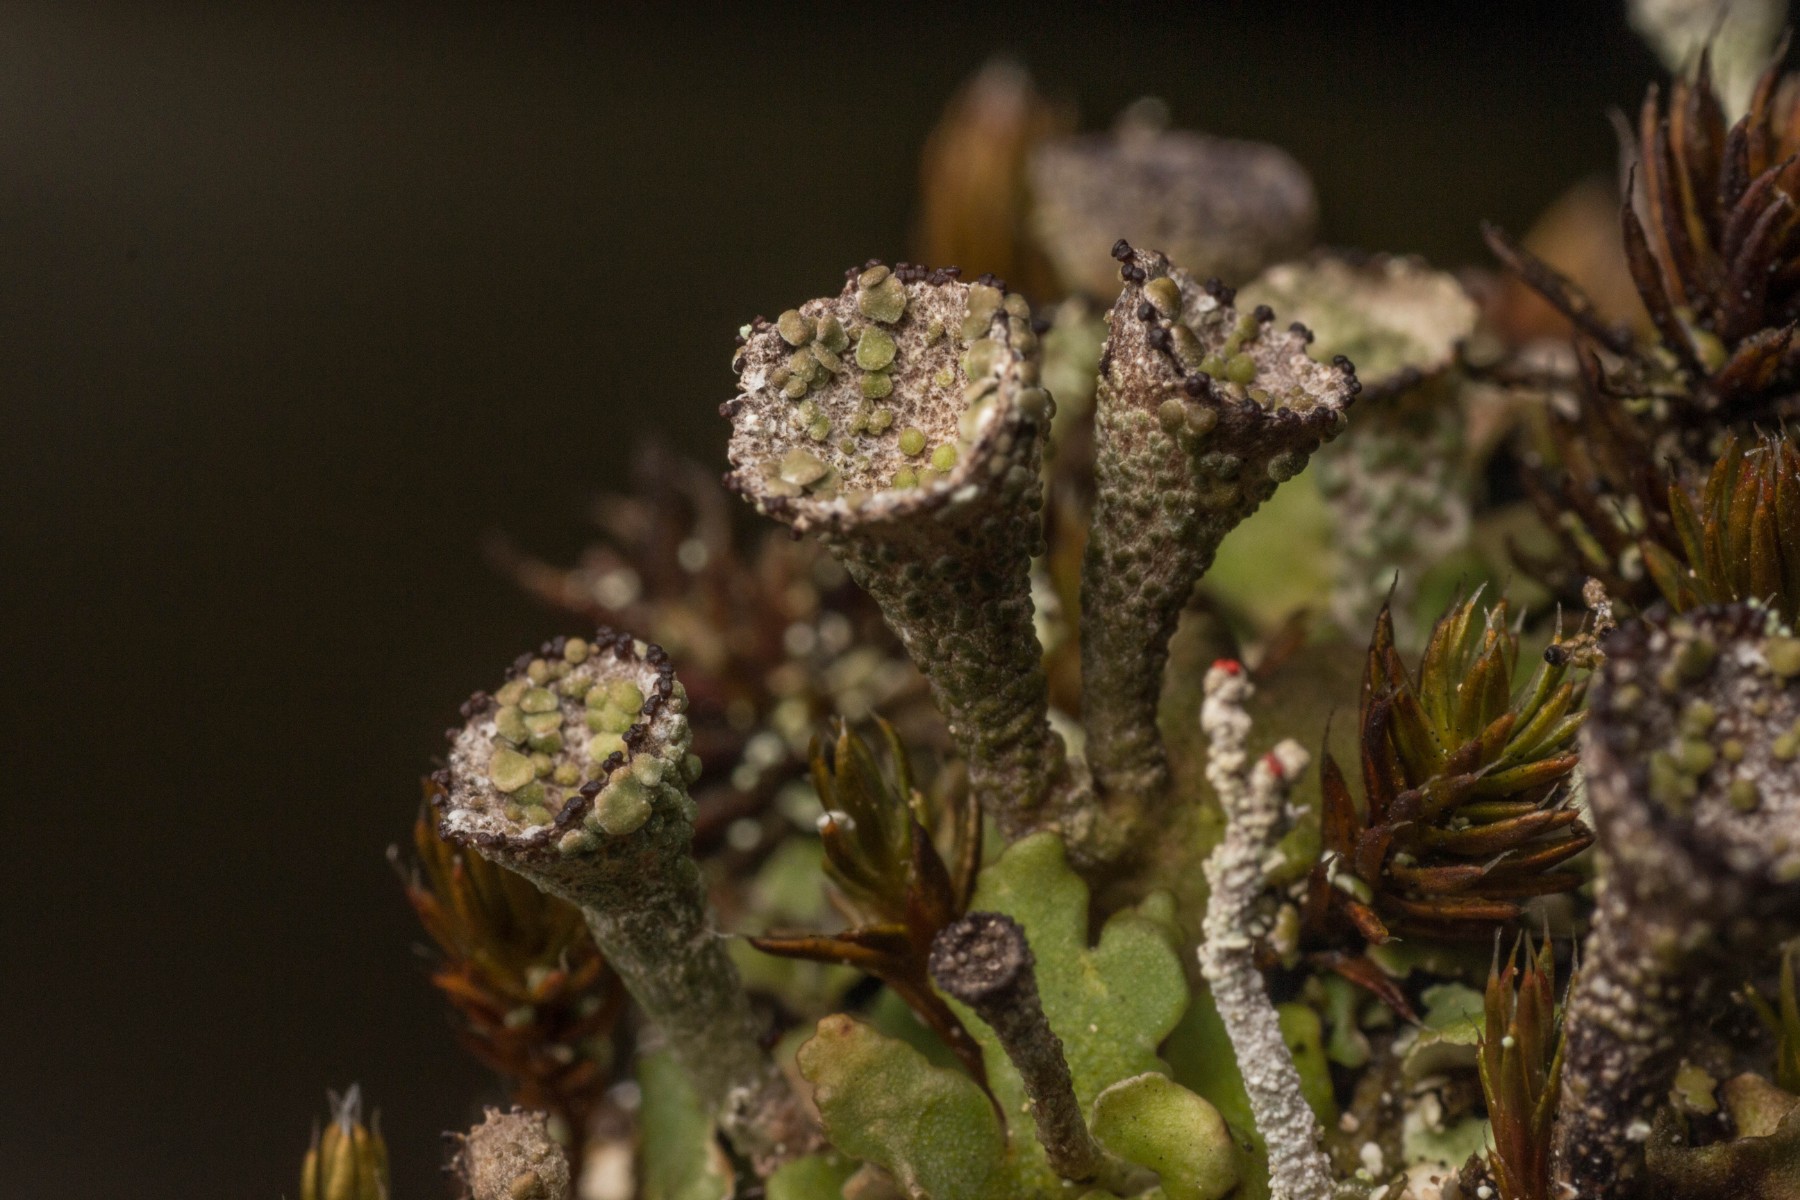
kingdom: Fungi
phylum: Ascomycota
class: Lecanoromycetes
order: Lecanorales
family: Cladoniaceae
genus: Cladonia
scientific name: Cladonia pyxidata
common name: tragt-bægerlav
